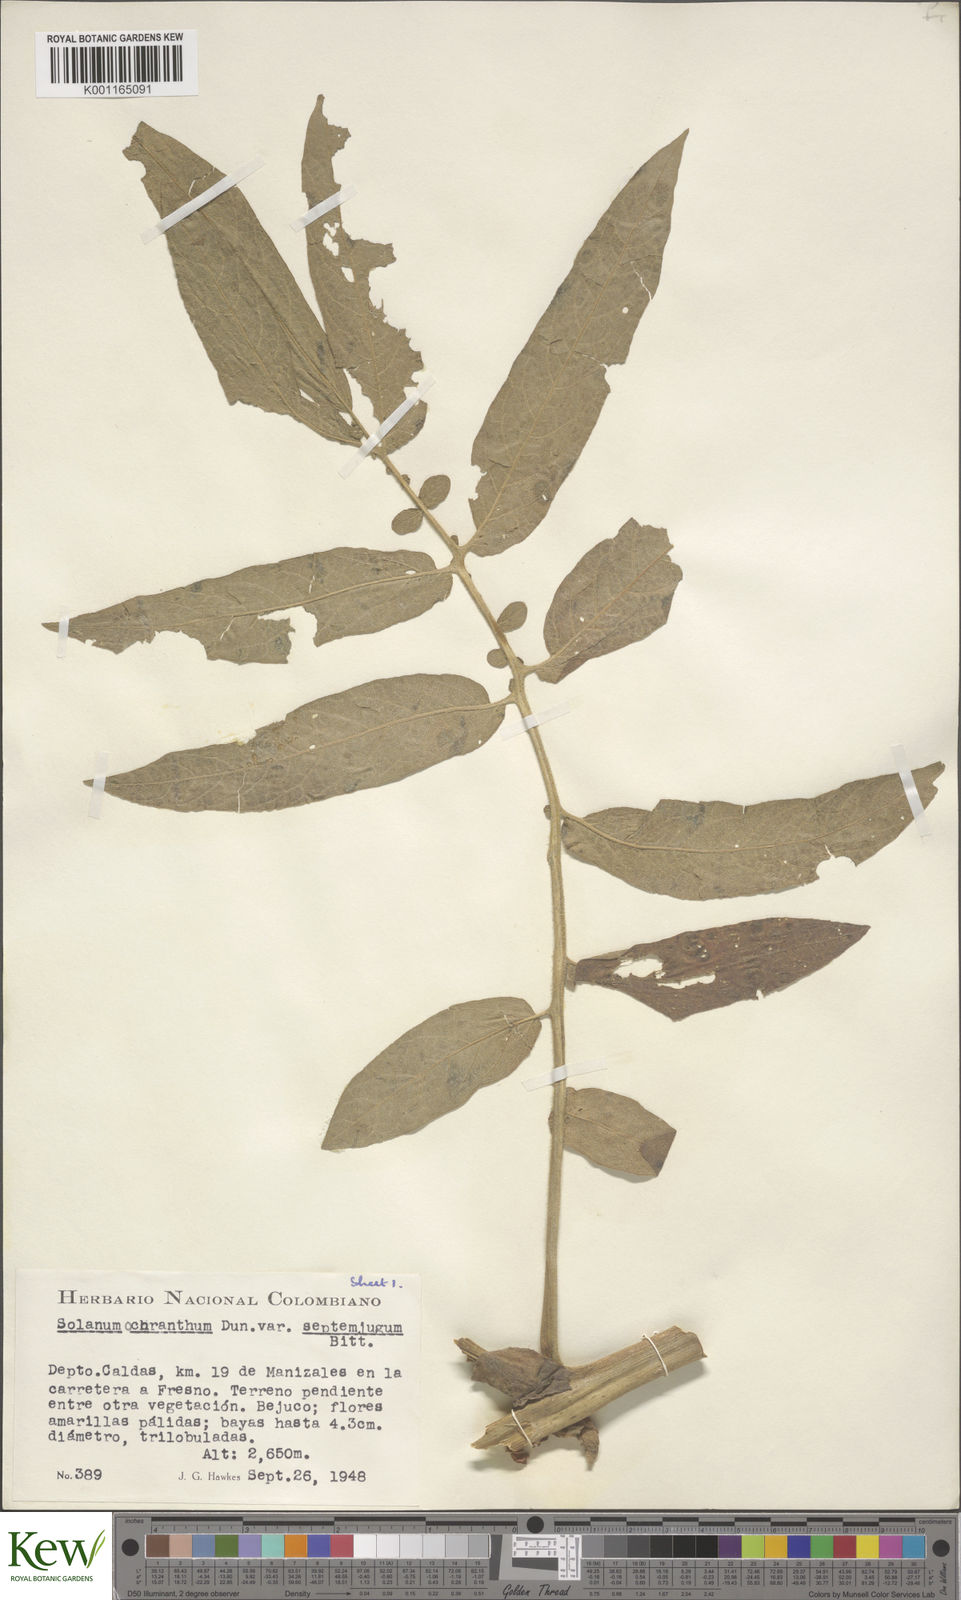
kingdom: Plantae
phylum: Tracheophyta
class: Magnoliopsida
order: Solanales
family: Solanaceae
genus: Solanum
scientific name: Solanum ochranthum
